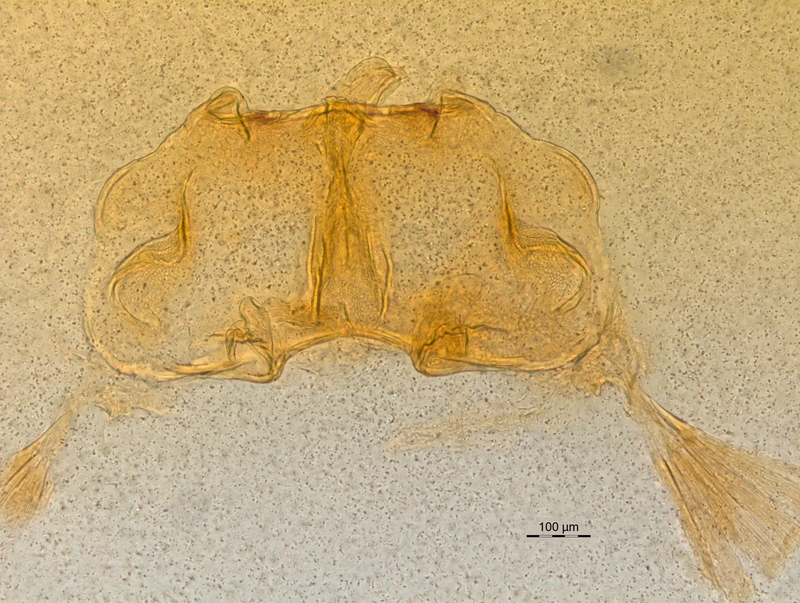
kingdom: Animalia
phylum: Arthropoda
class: Diplopoda
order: Chordeumatida
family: Craspedosomatidae
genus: Craspedosoma
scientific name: Craspedosoma rawlinsii
